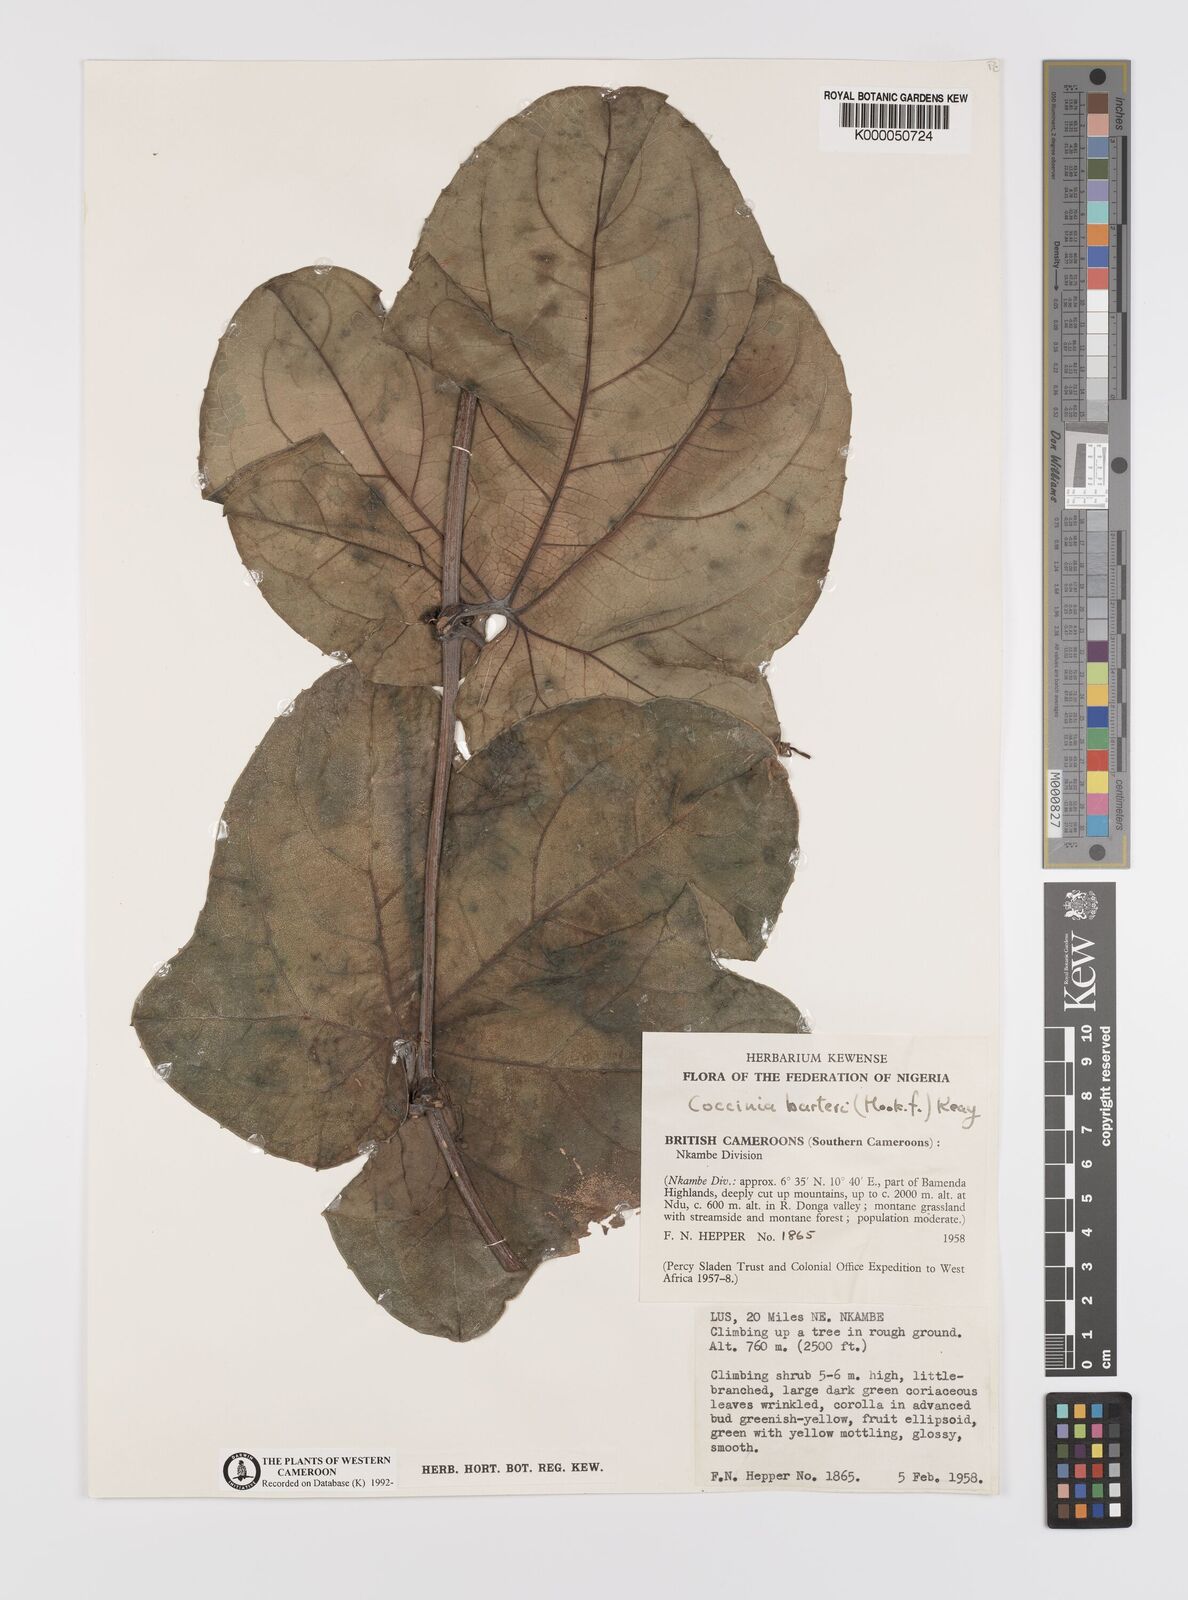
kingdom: Plantae
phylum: Tracheophyta
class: Magnoliopsida
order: Cucurbitales
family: Cucurbitaceae
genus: Coccinia
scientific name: Coccinia barteri
